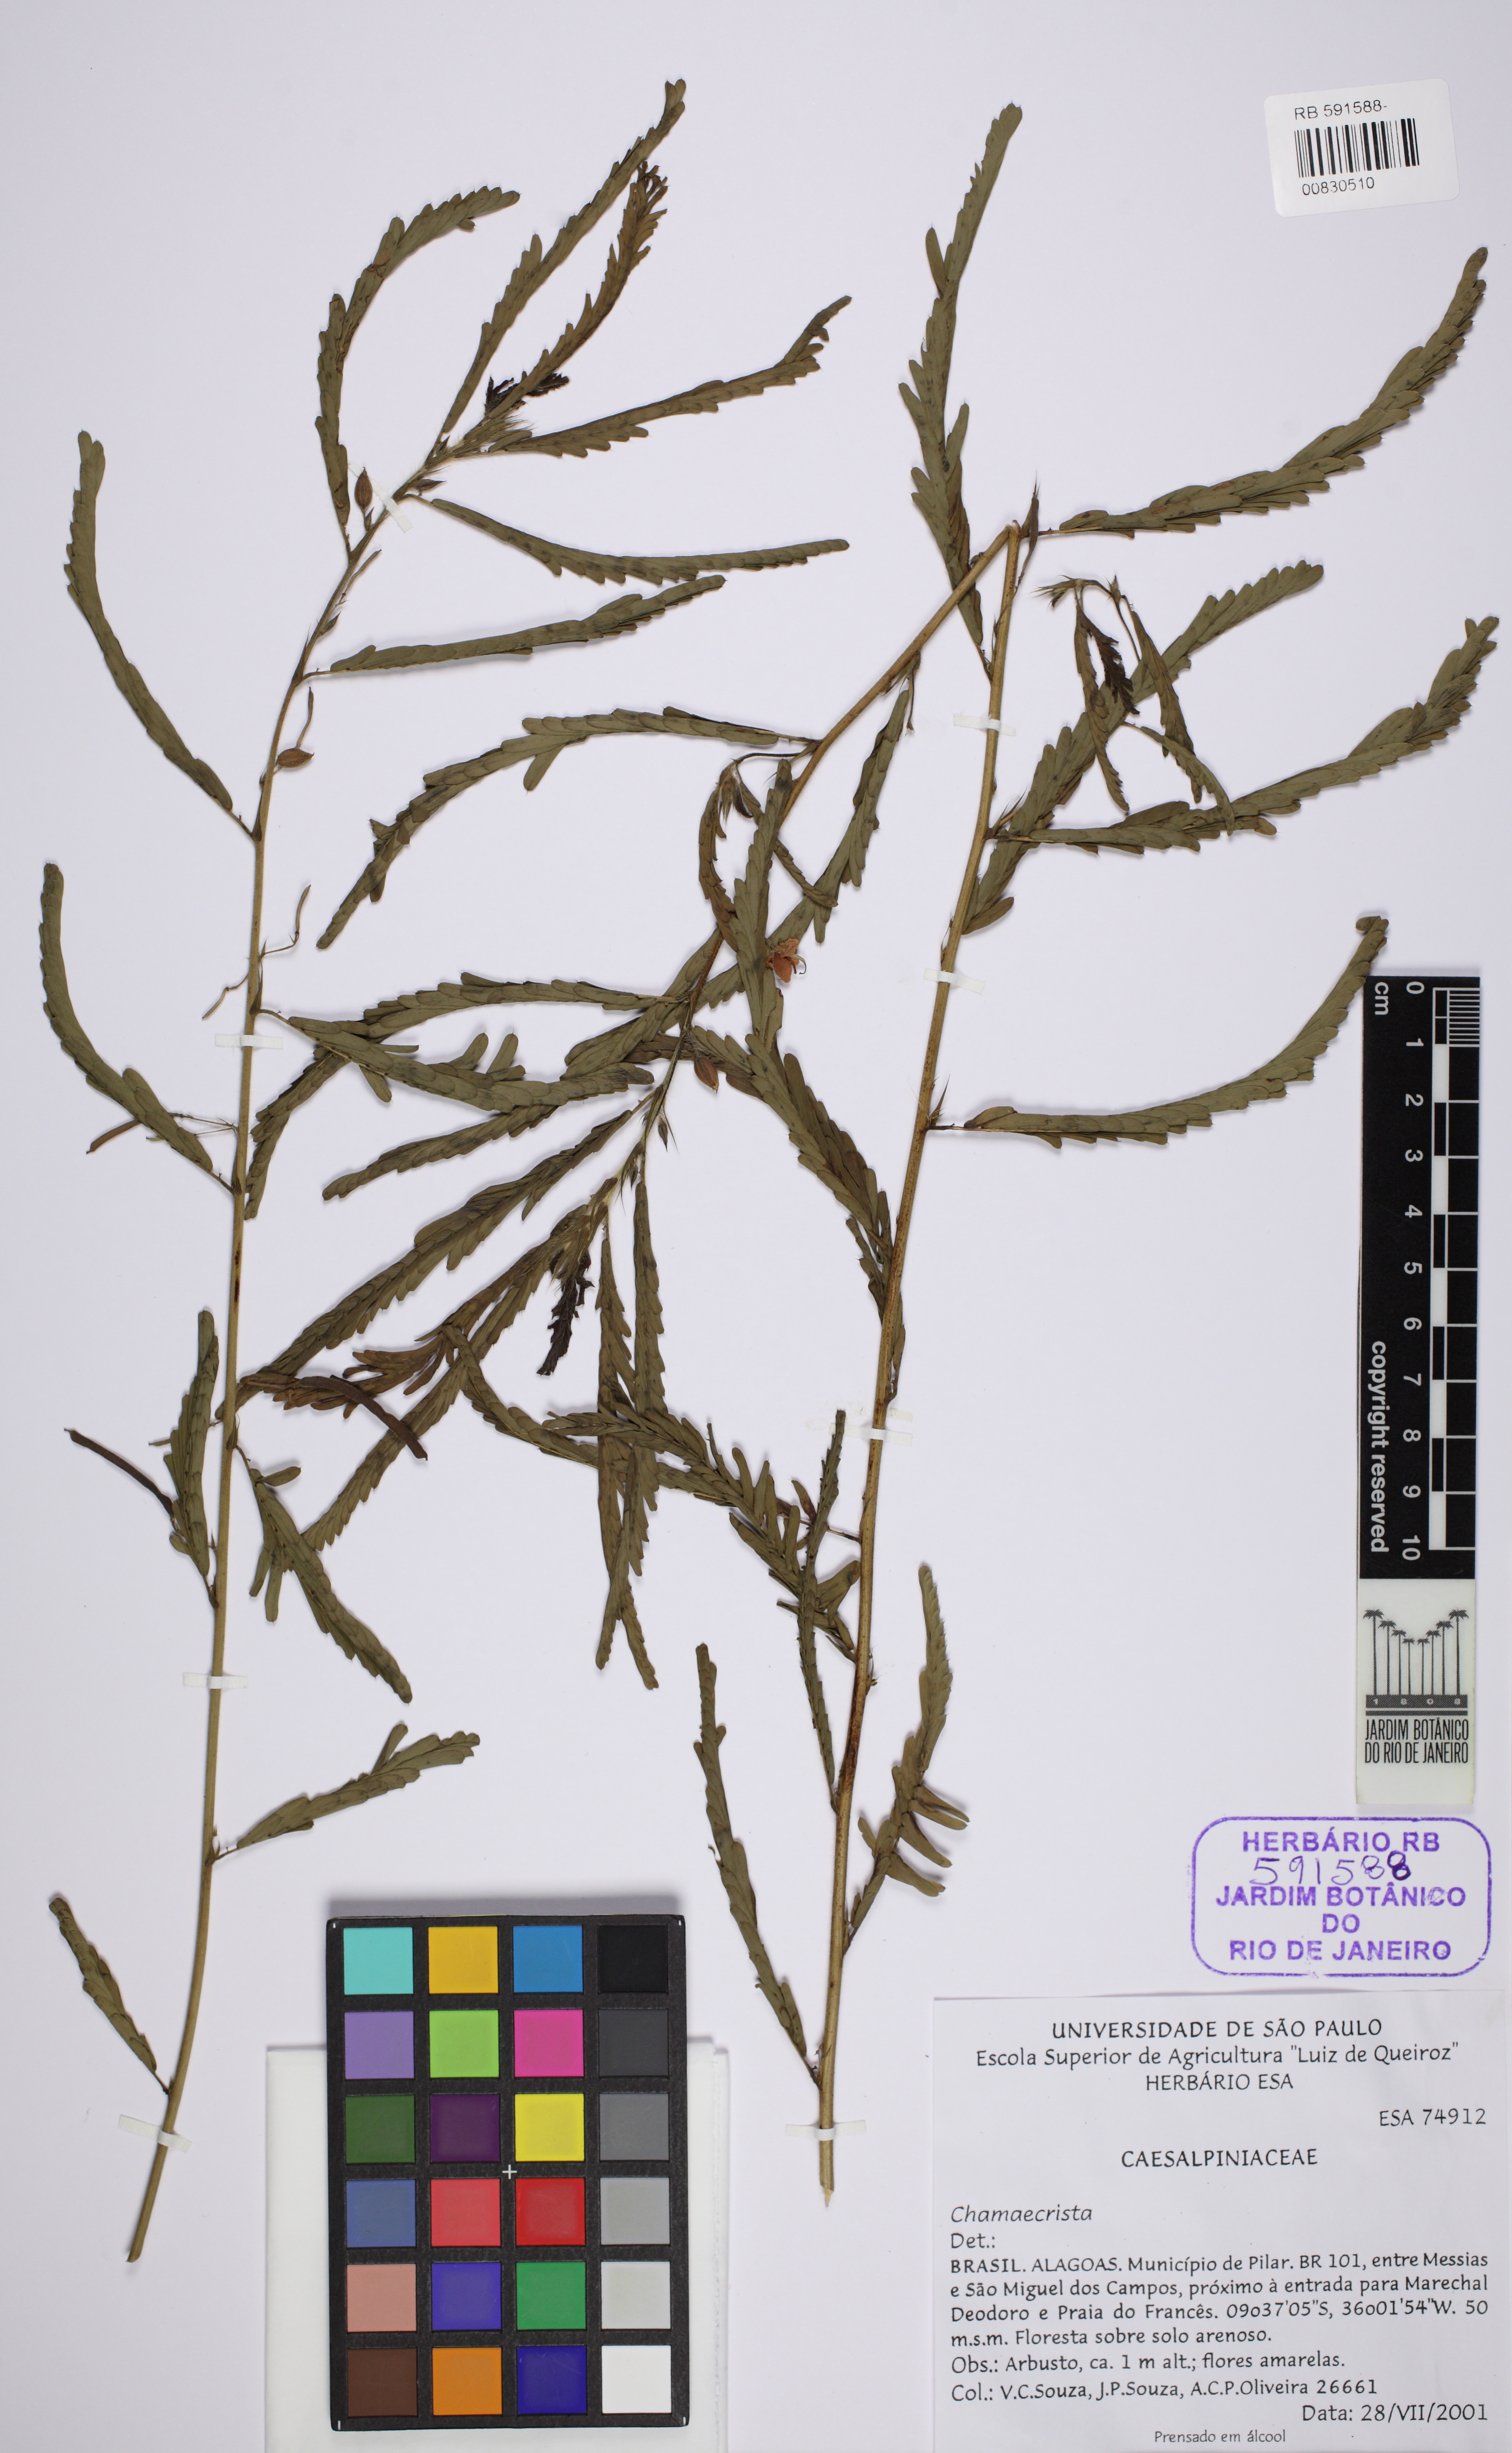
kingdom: Plantae
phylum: Tracheophyta
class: Magnoliopsida
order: Fabales
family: Fabaceae
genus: Chamaecrista
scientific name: Chamaecrista
